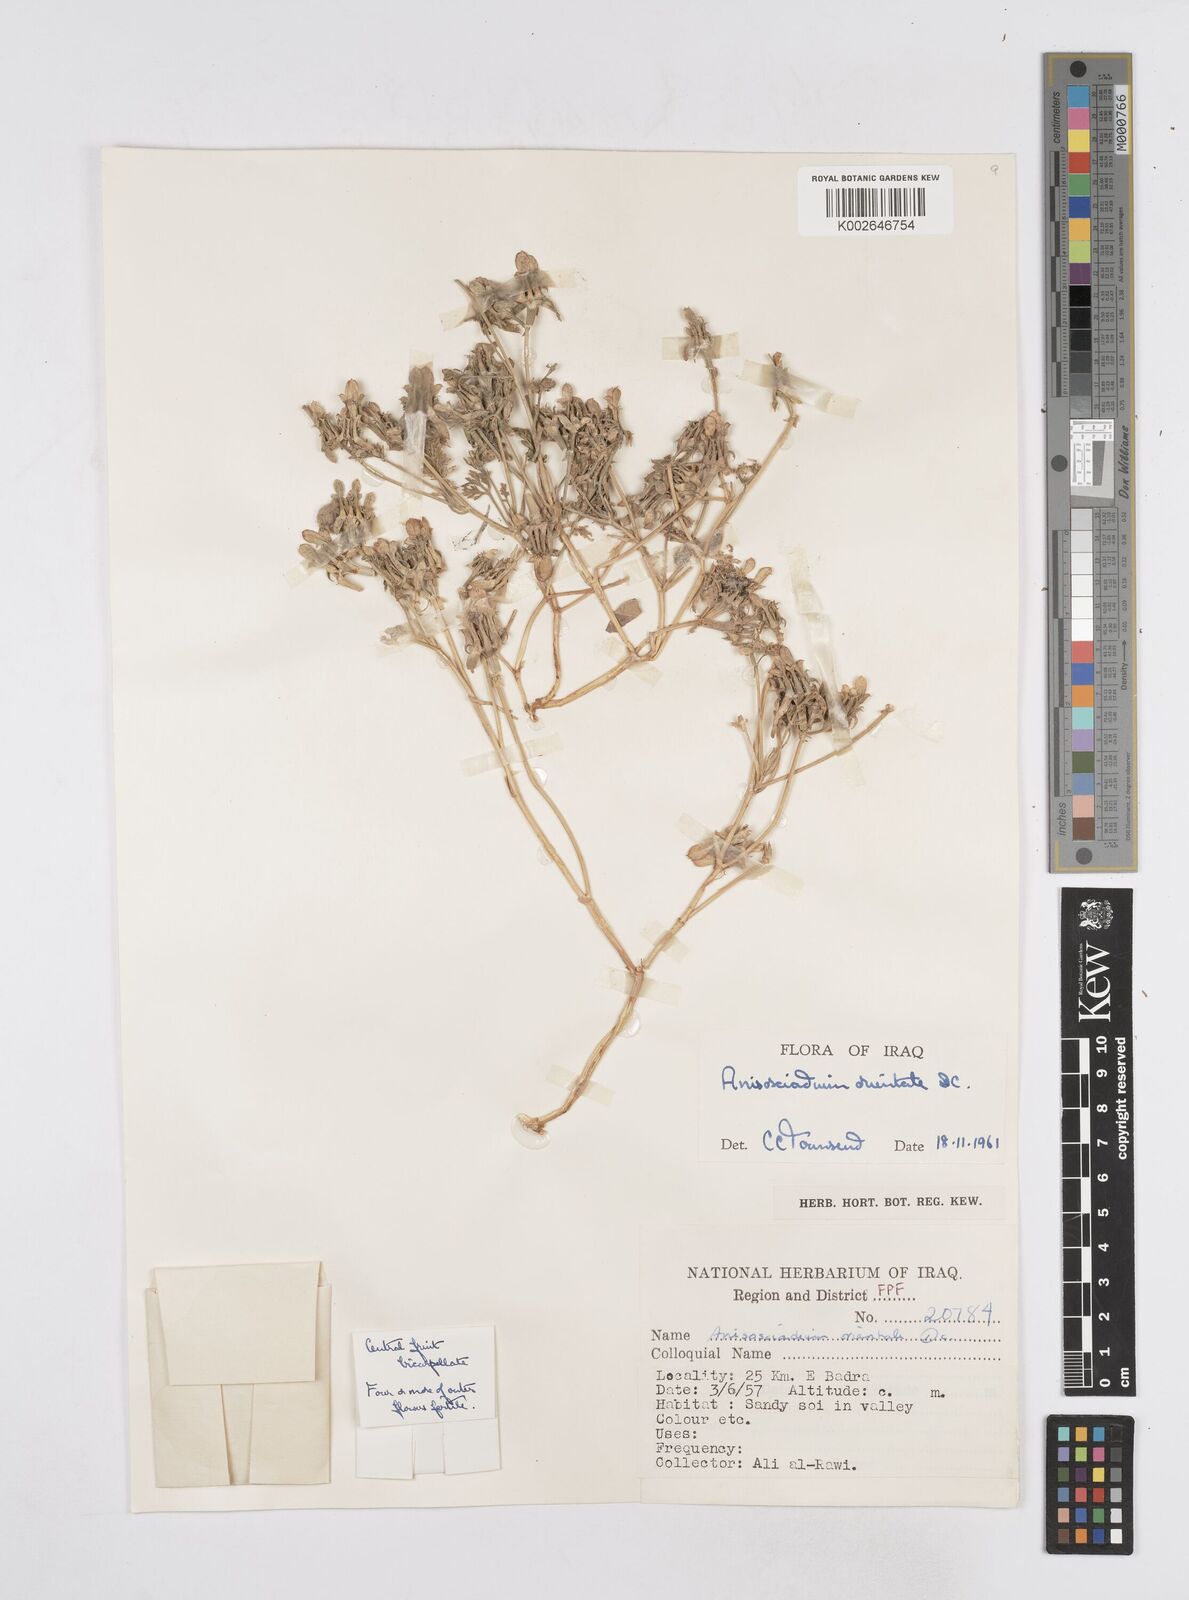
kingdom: Plantae
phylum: Tracheophyta
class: Magnoliopsida
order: Apiales
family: Apiaceae
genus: Anisosciadium
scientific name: Anisosciadium orientale
